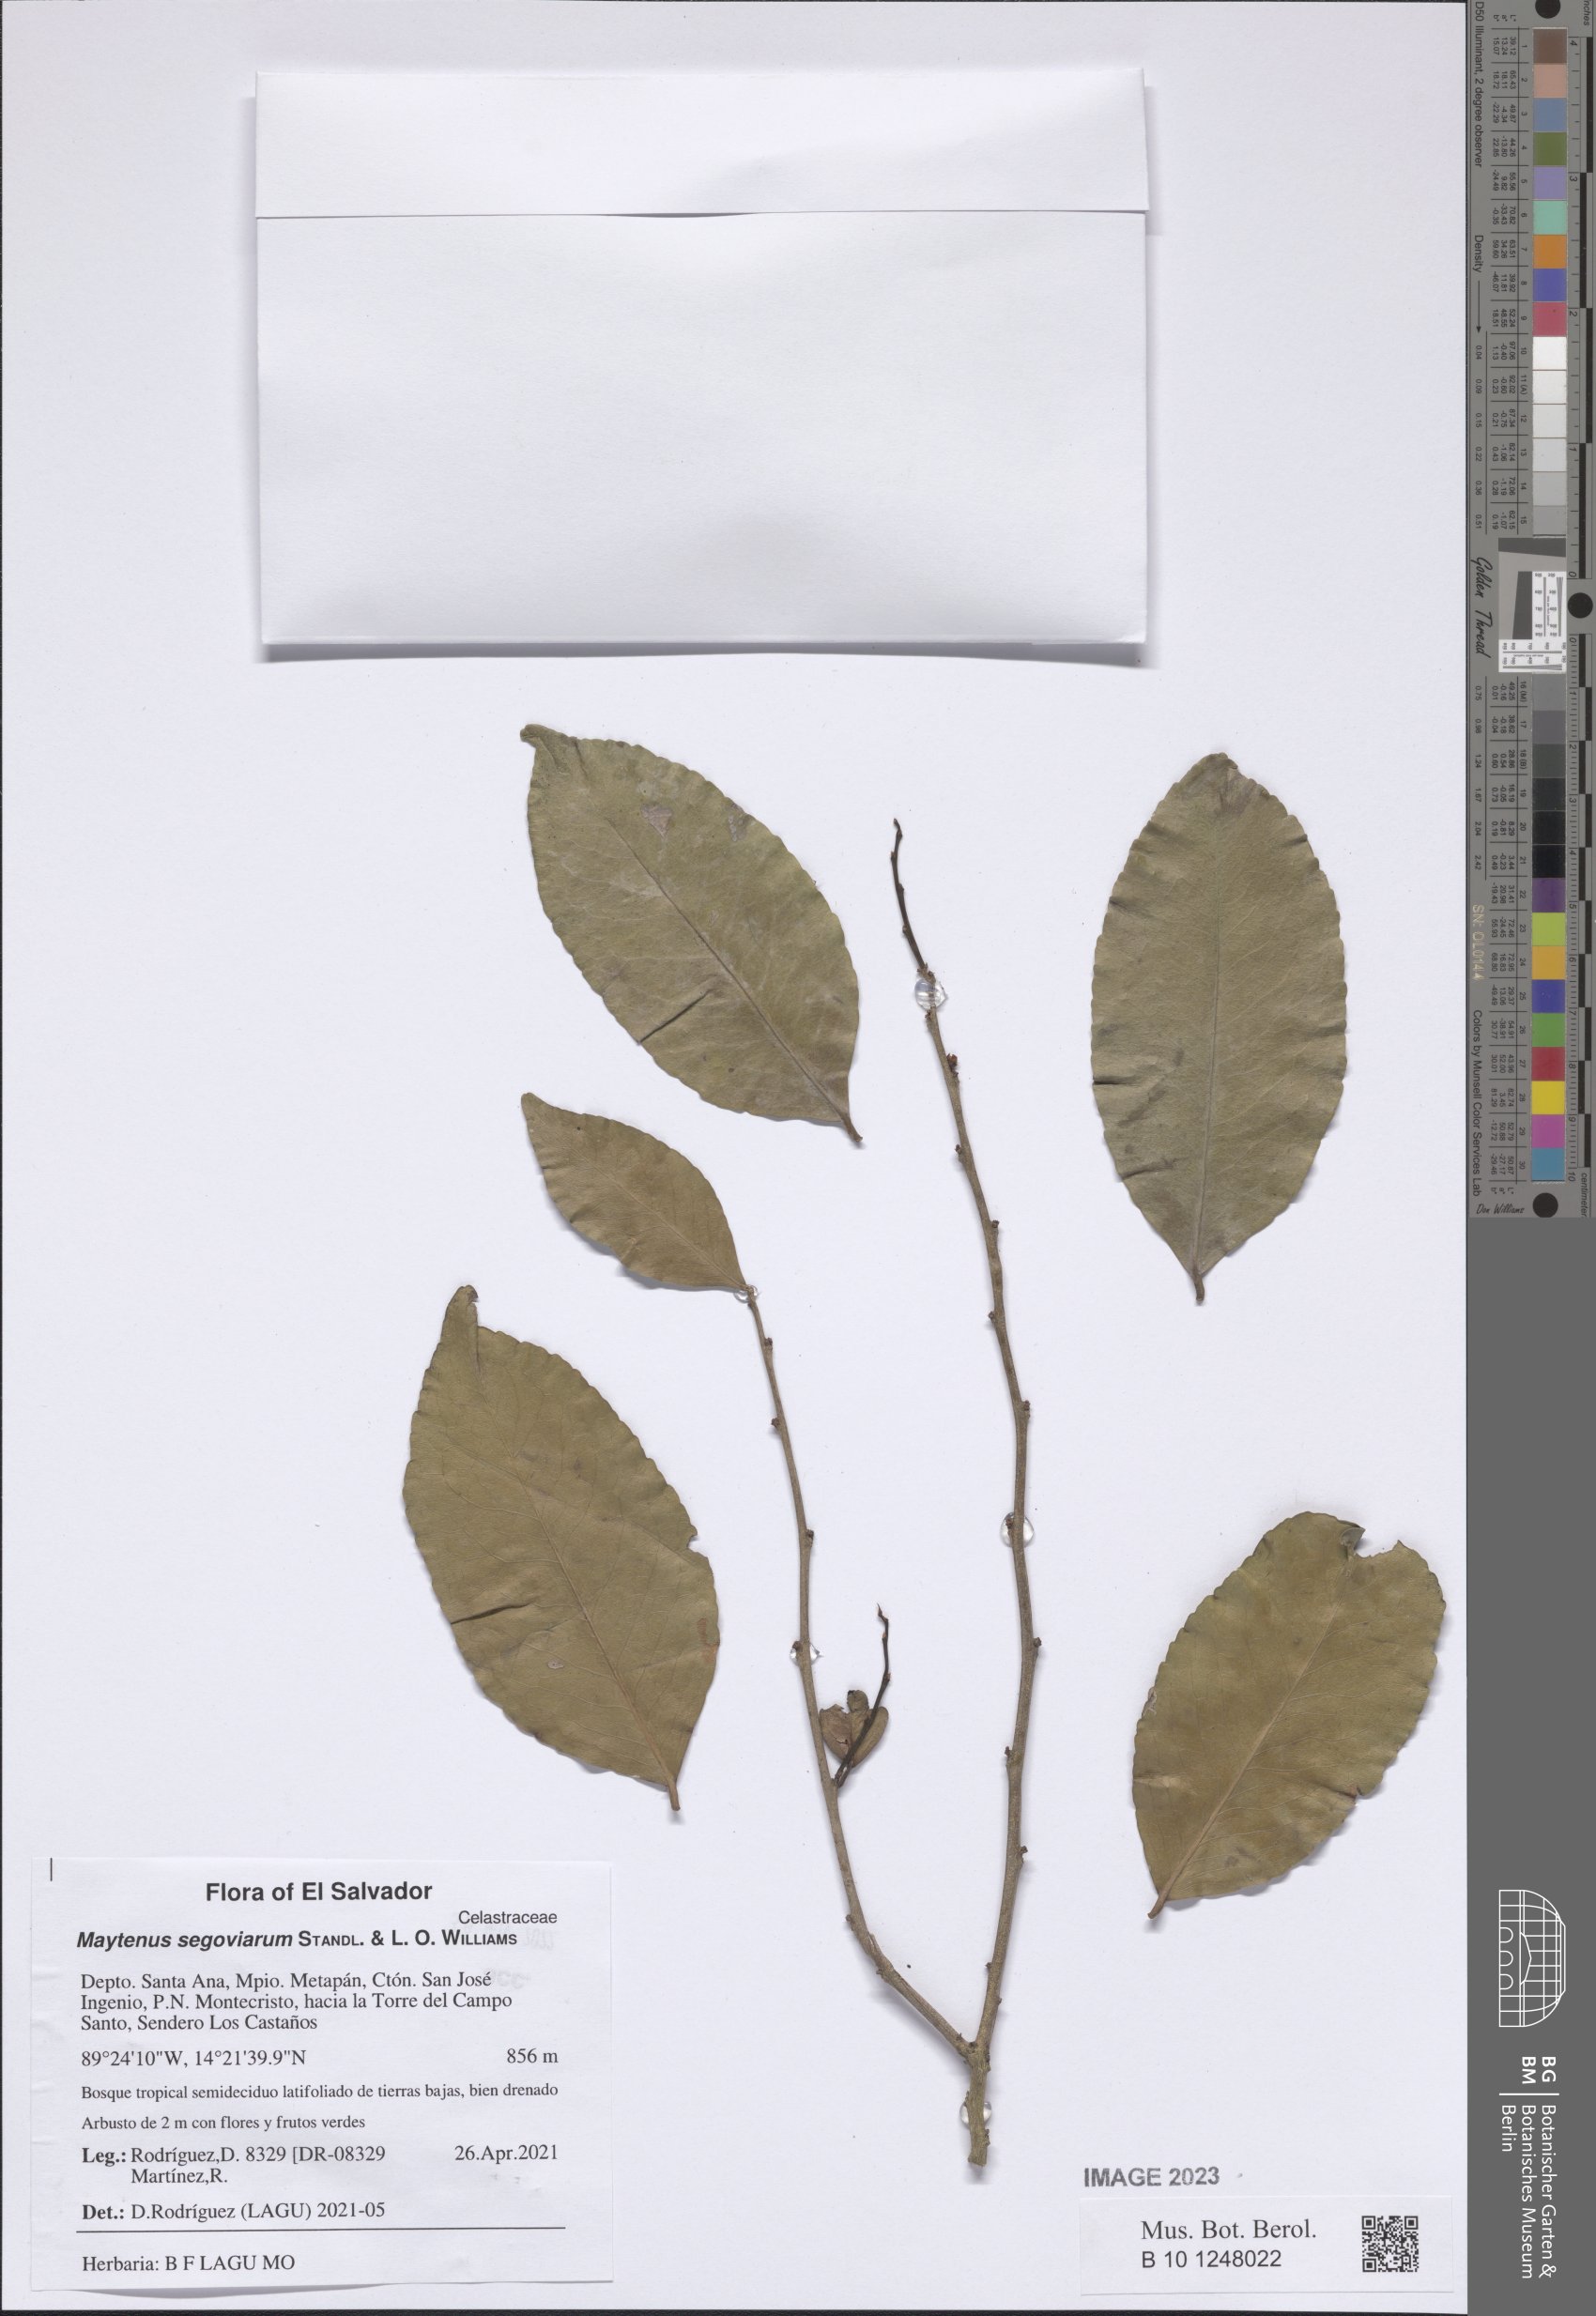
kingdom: Plantae
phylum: Tracheophyta
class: Magnoliopsida
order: Celastrales
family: Celastraceae
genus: Monteverdia
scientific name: Monteverdia segoviarum
